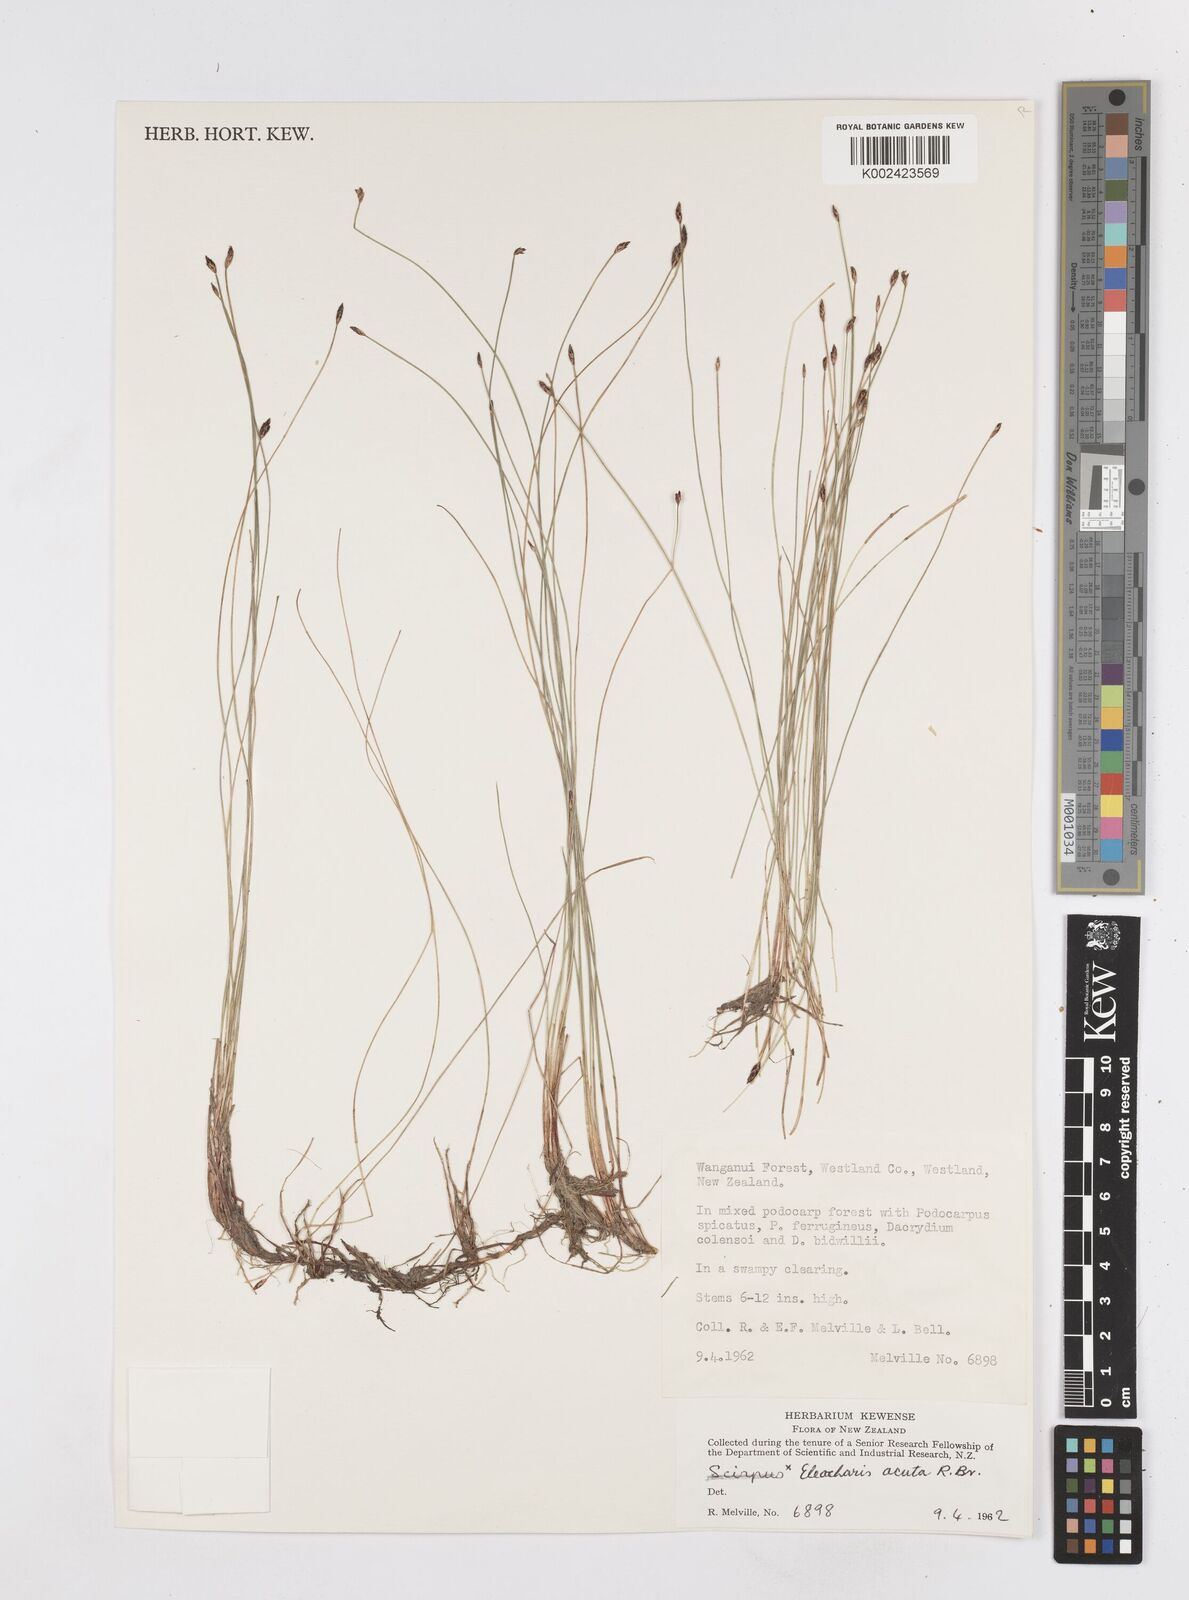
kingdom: Plantae
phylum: Tracheophyta
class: Liliopsida
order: Poales
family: Cyperaceae
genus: Eleocharis
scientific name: Eleocharis acuta
